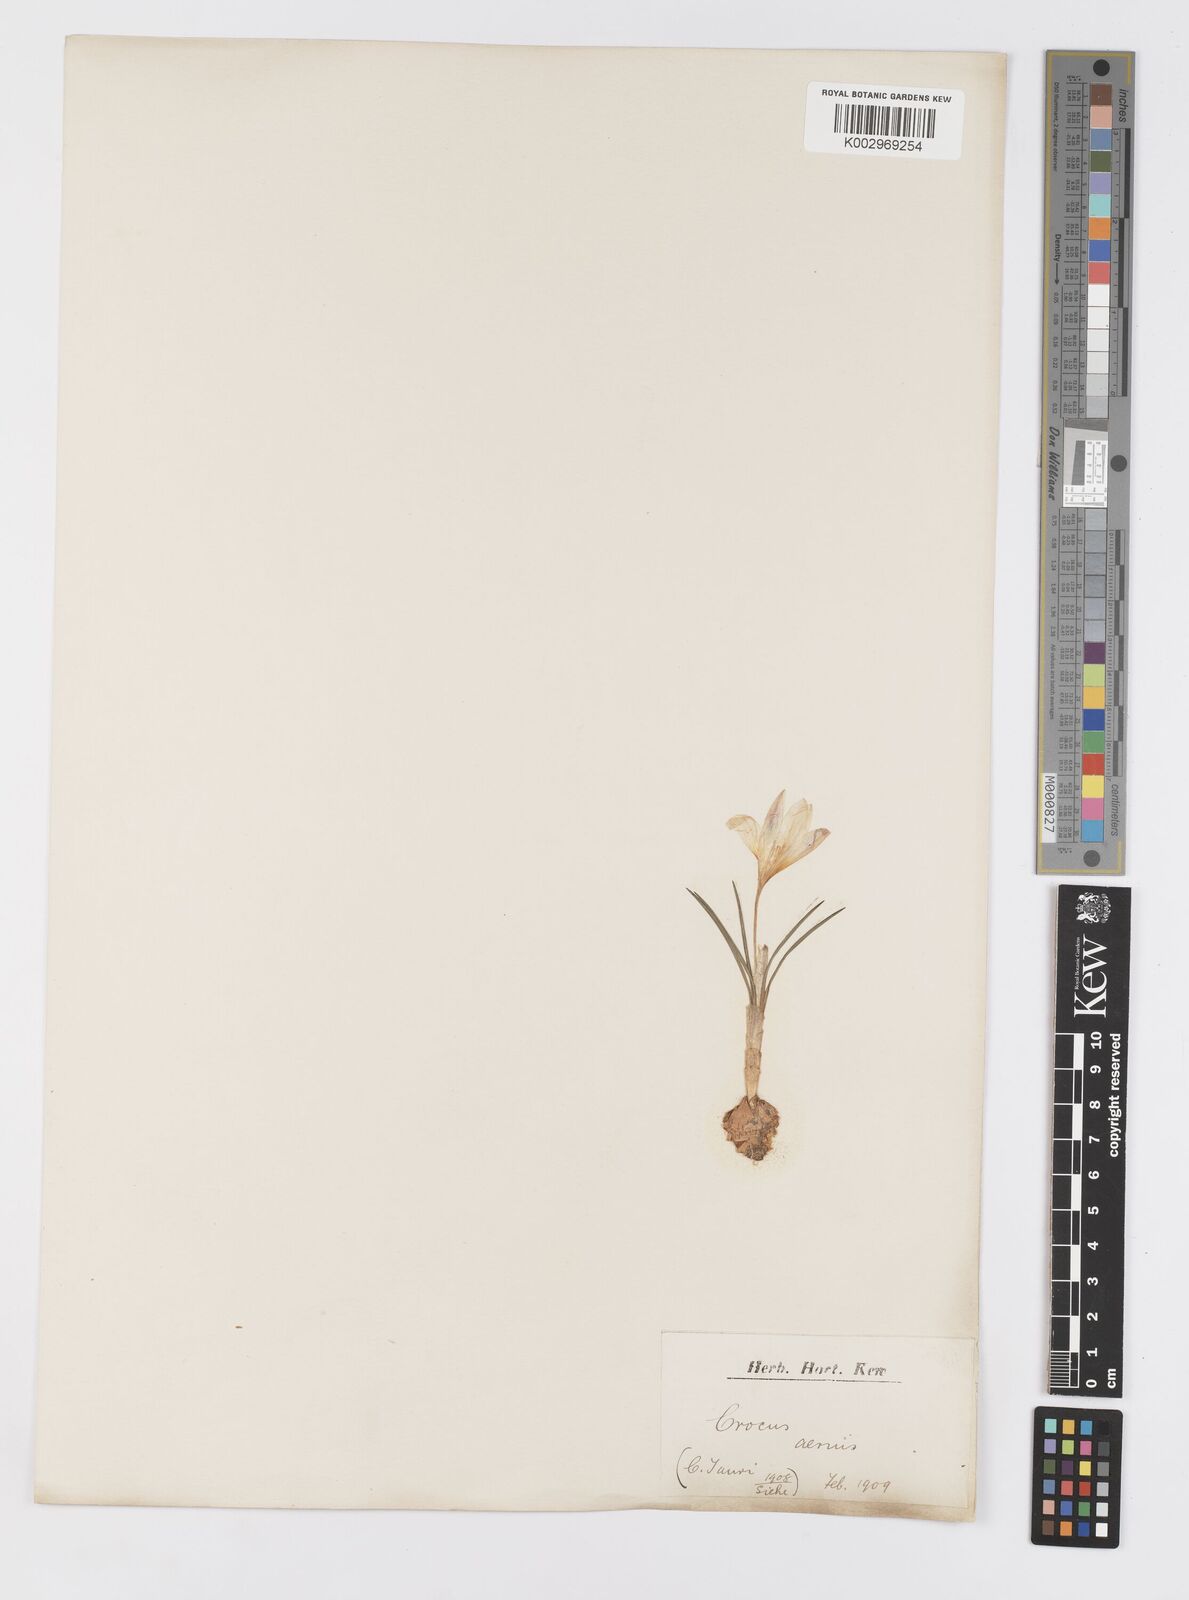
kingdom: Plantae
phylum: Tracheophyta
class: Liliopsida
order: Asparagales
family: Iridaceae
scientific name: Iridaceae
